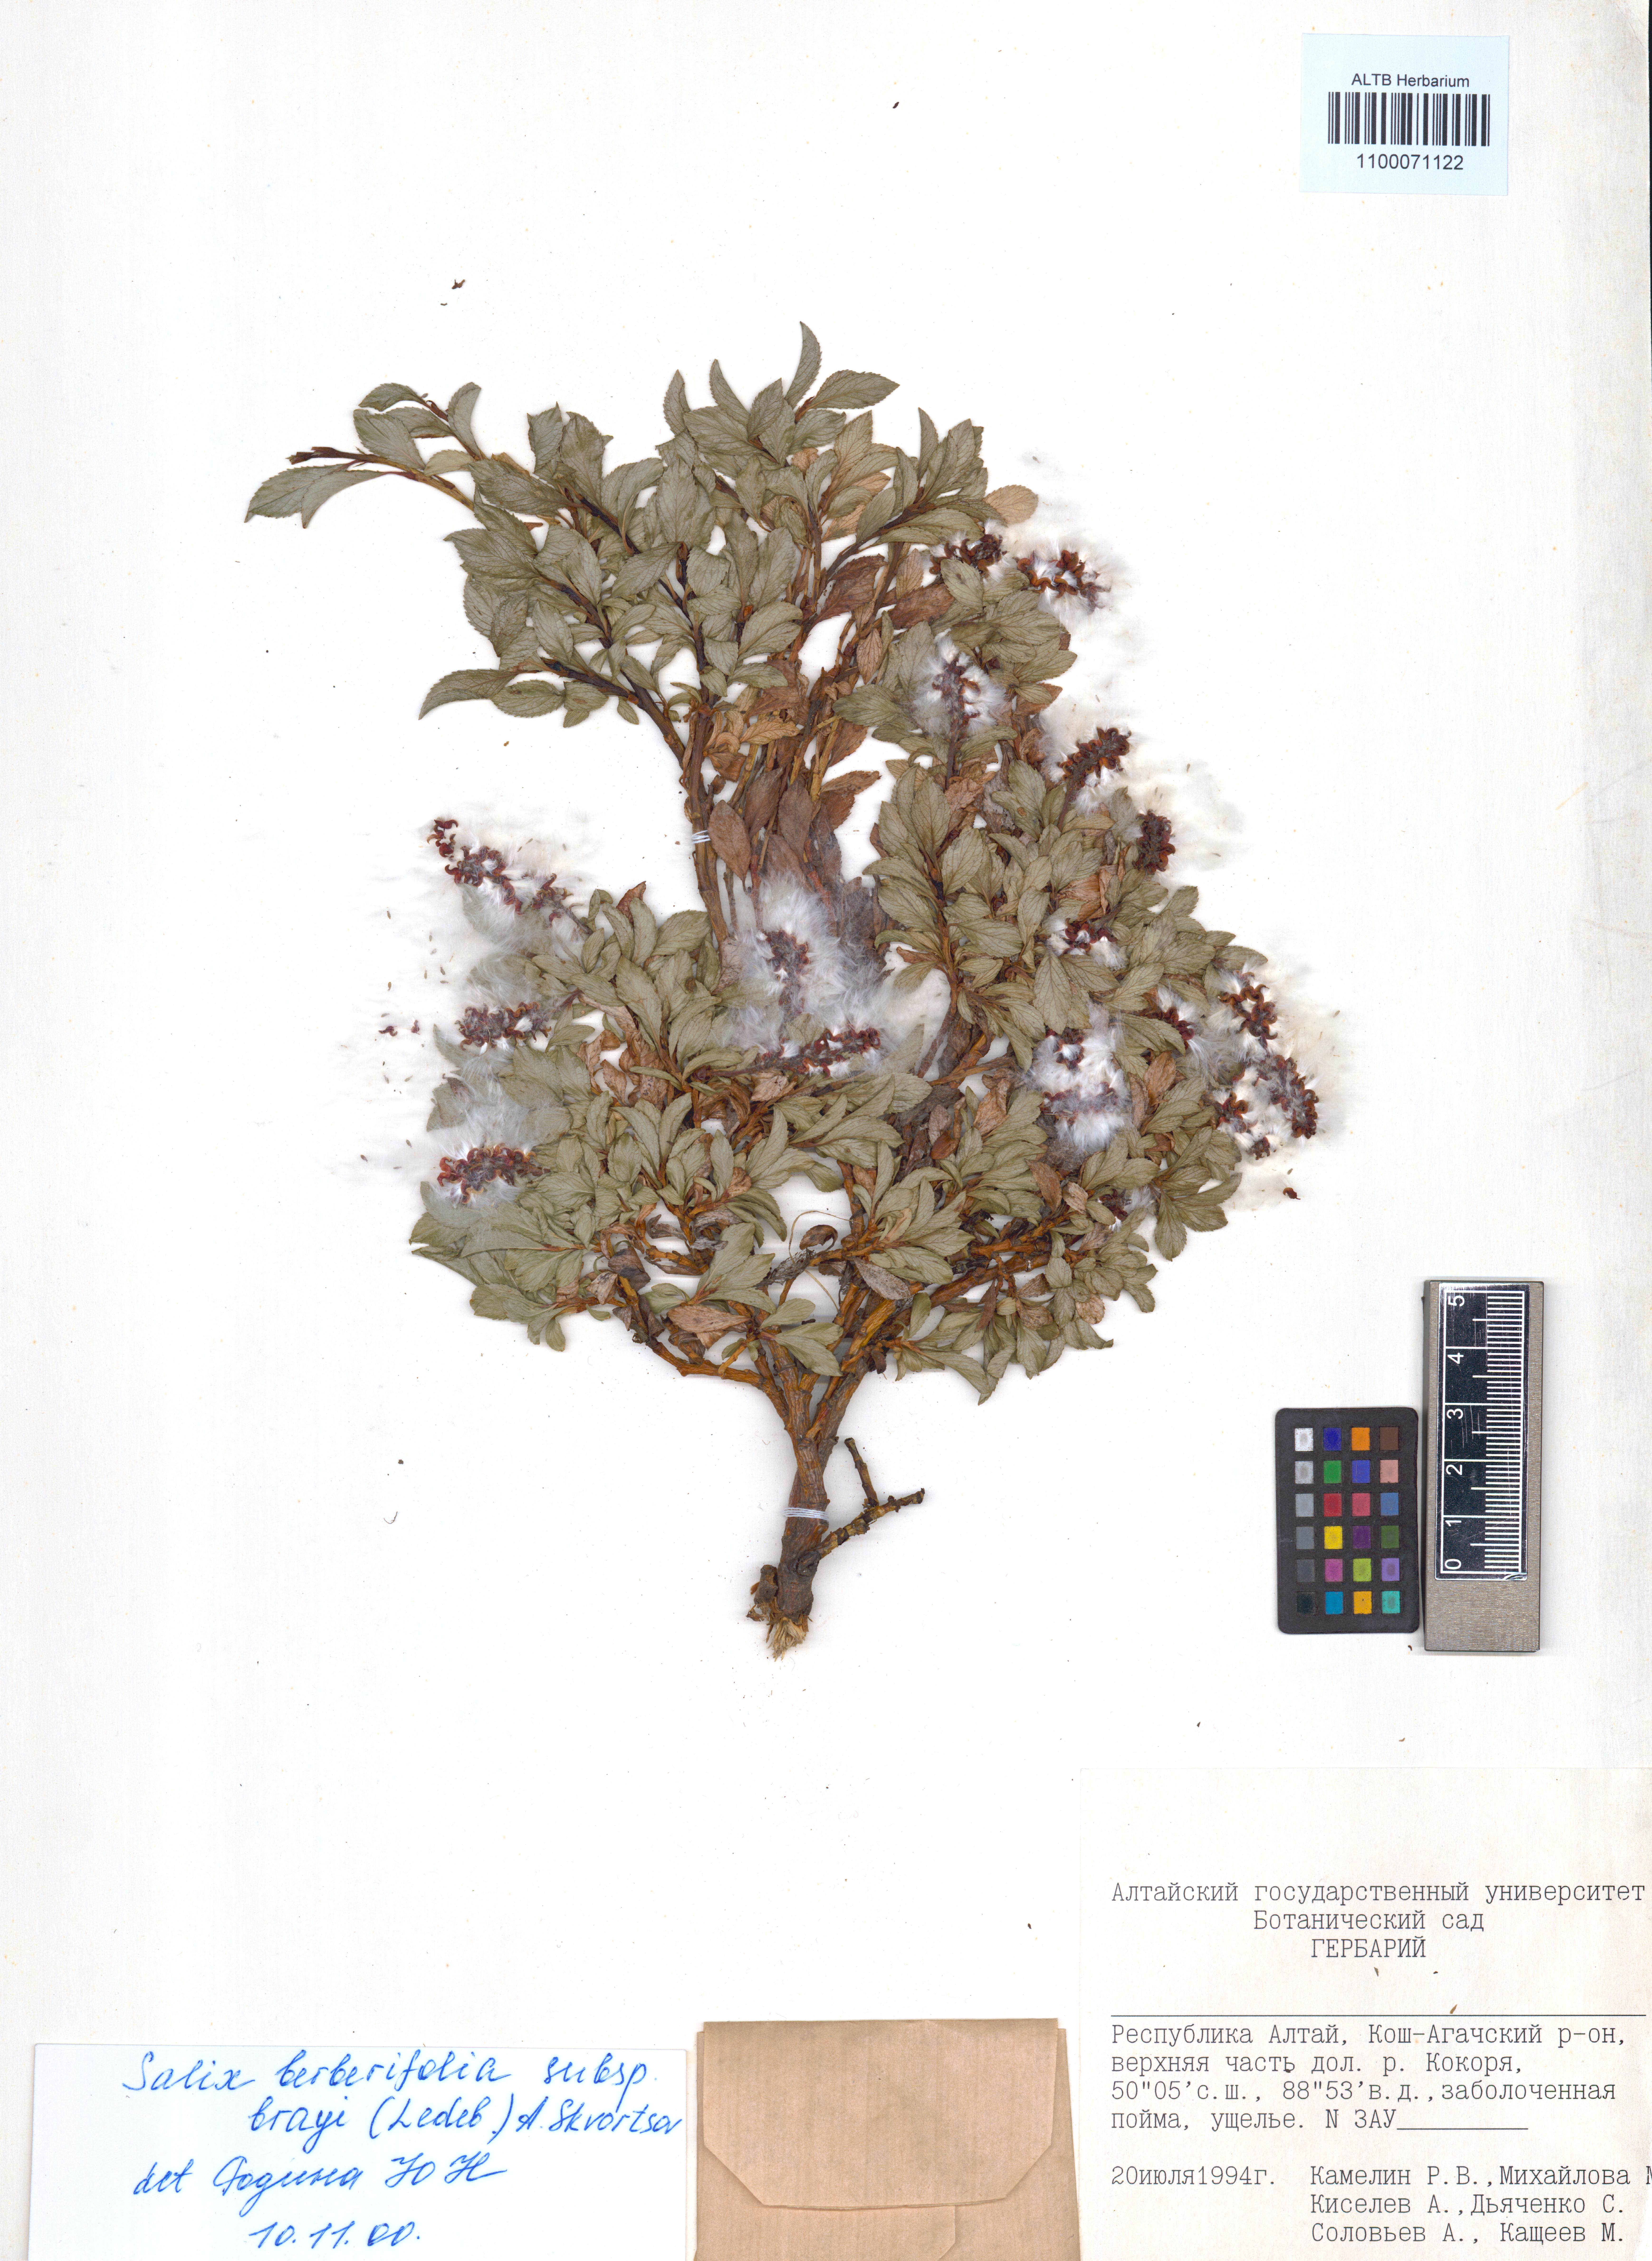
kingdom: Plantae
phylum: Tracheophyta
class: Magnoliopsida
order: Malpighiales
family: Salicaceae
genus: Salix
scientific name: Salix berberifolia
